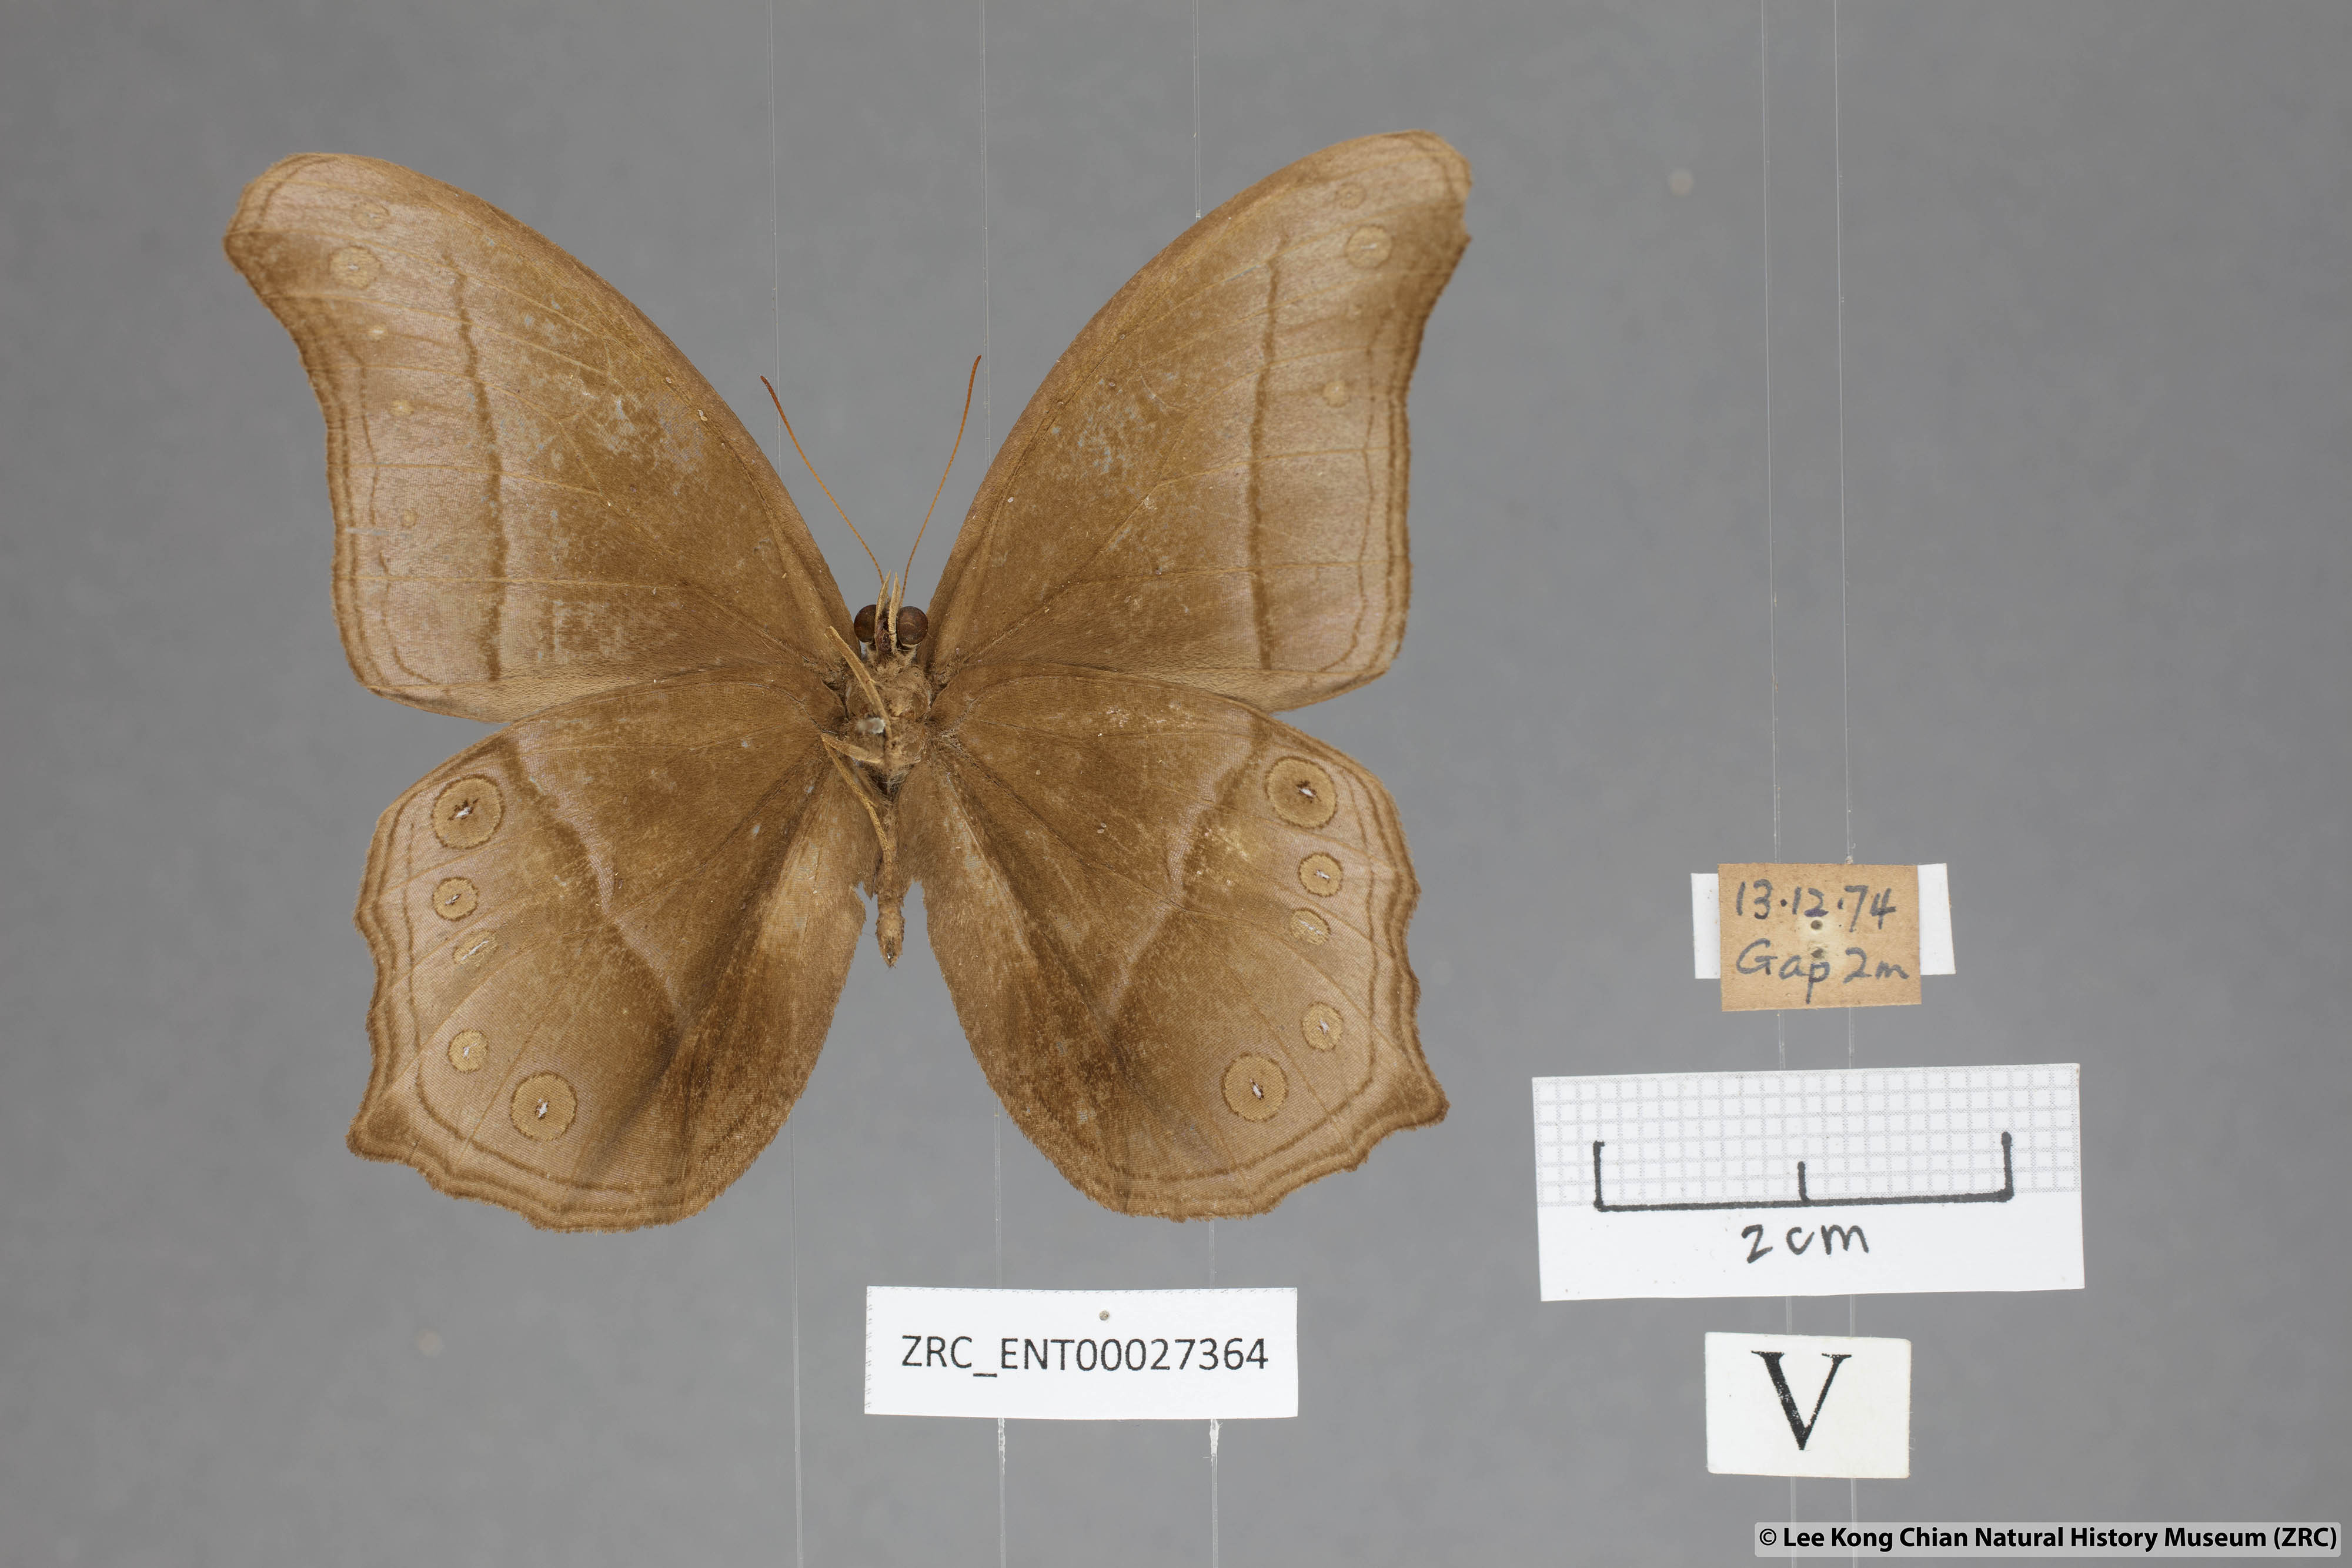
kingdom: Animalia
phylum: Arthropoda
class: Insecta
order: Lepidoptera
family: Nymphalidae
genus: Coelites
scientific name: Coelites epiminthia
